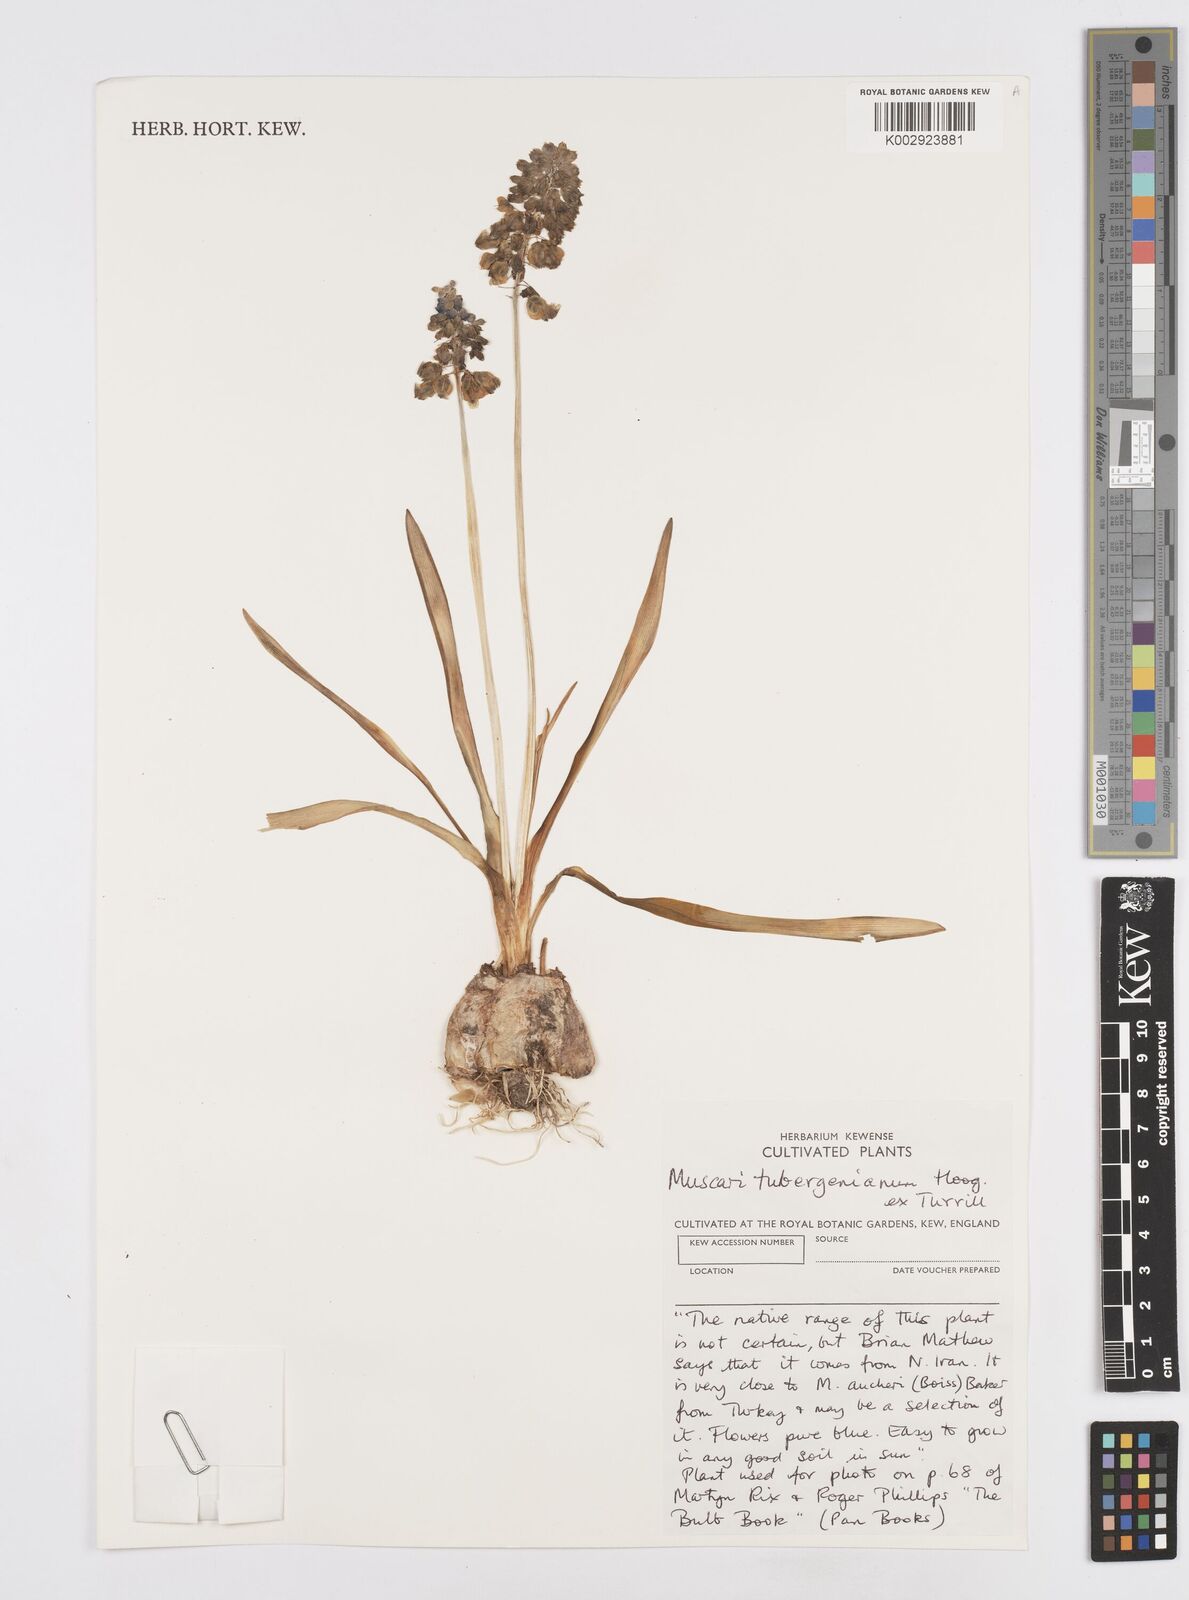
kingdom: Plantae
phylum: Tracheophyta
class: Liliopsida
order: Asparagales
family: Asparagaceae
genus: Muscari
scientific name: Muscari aucheri
